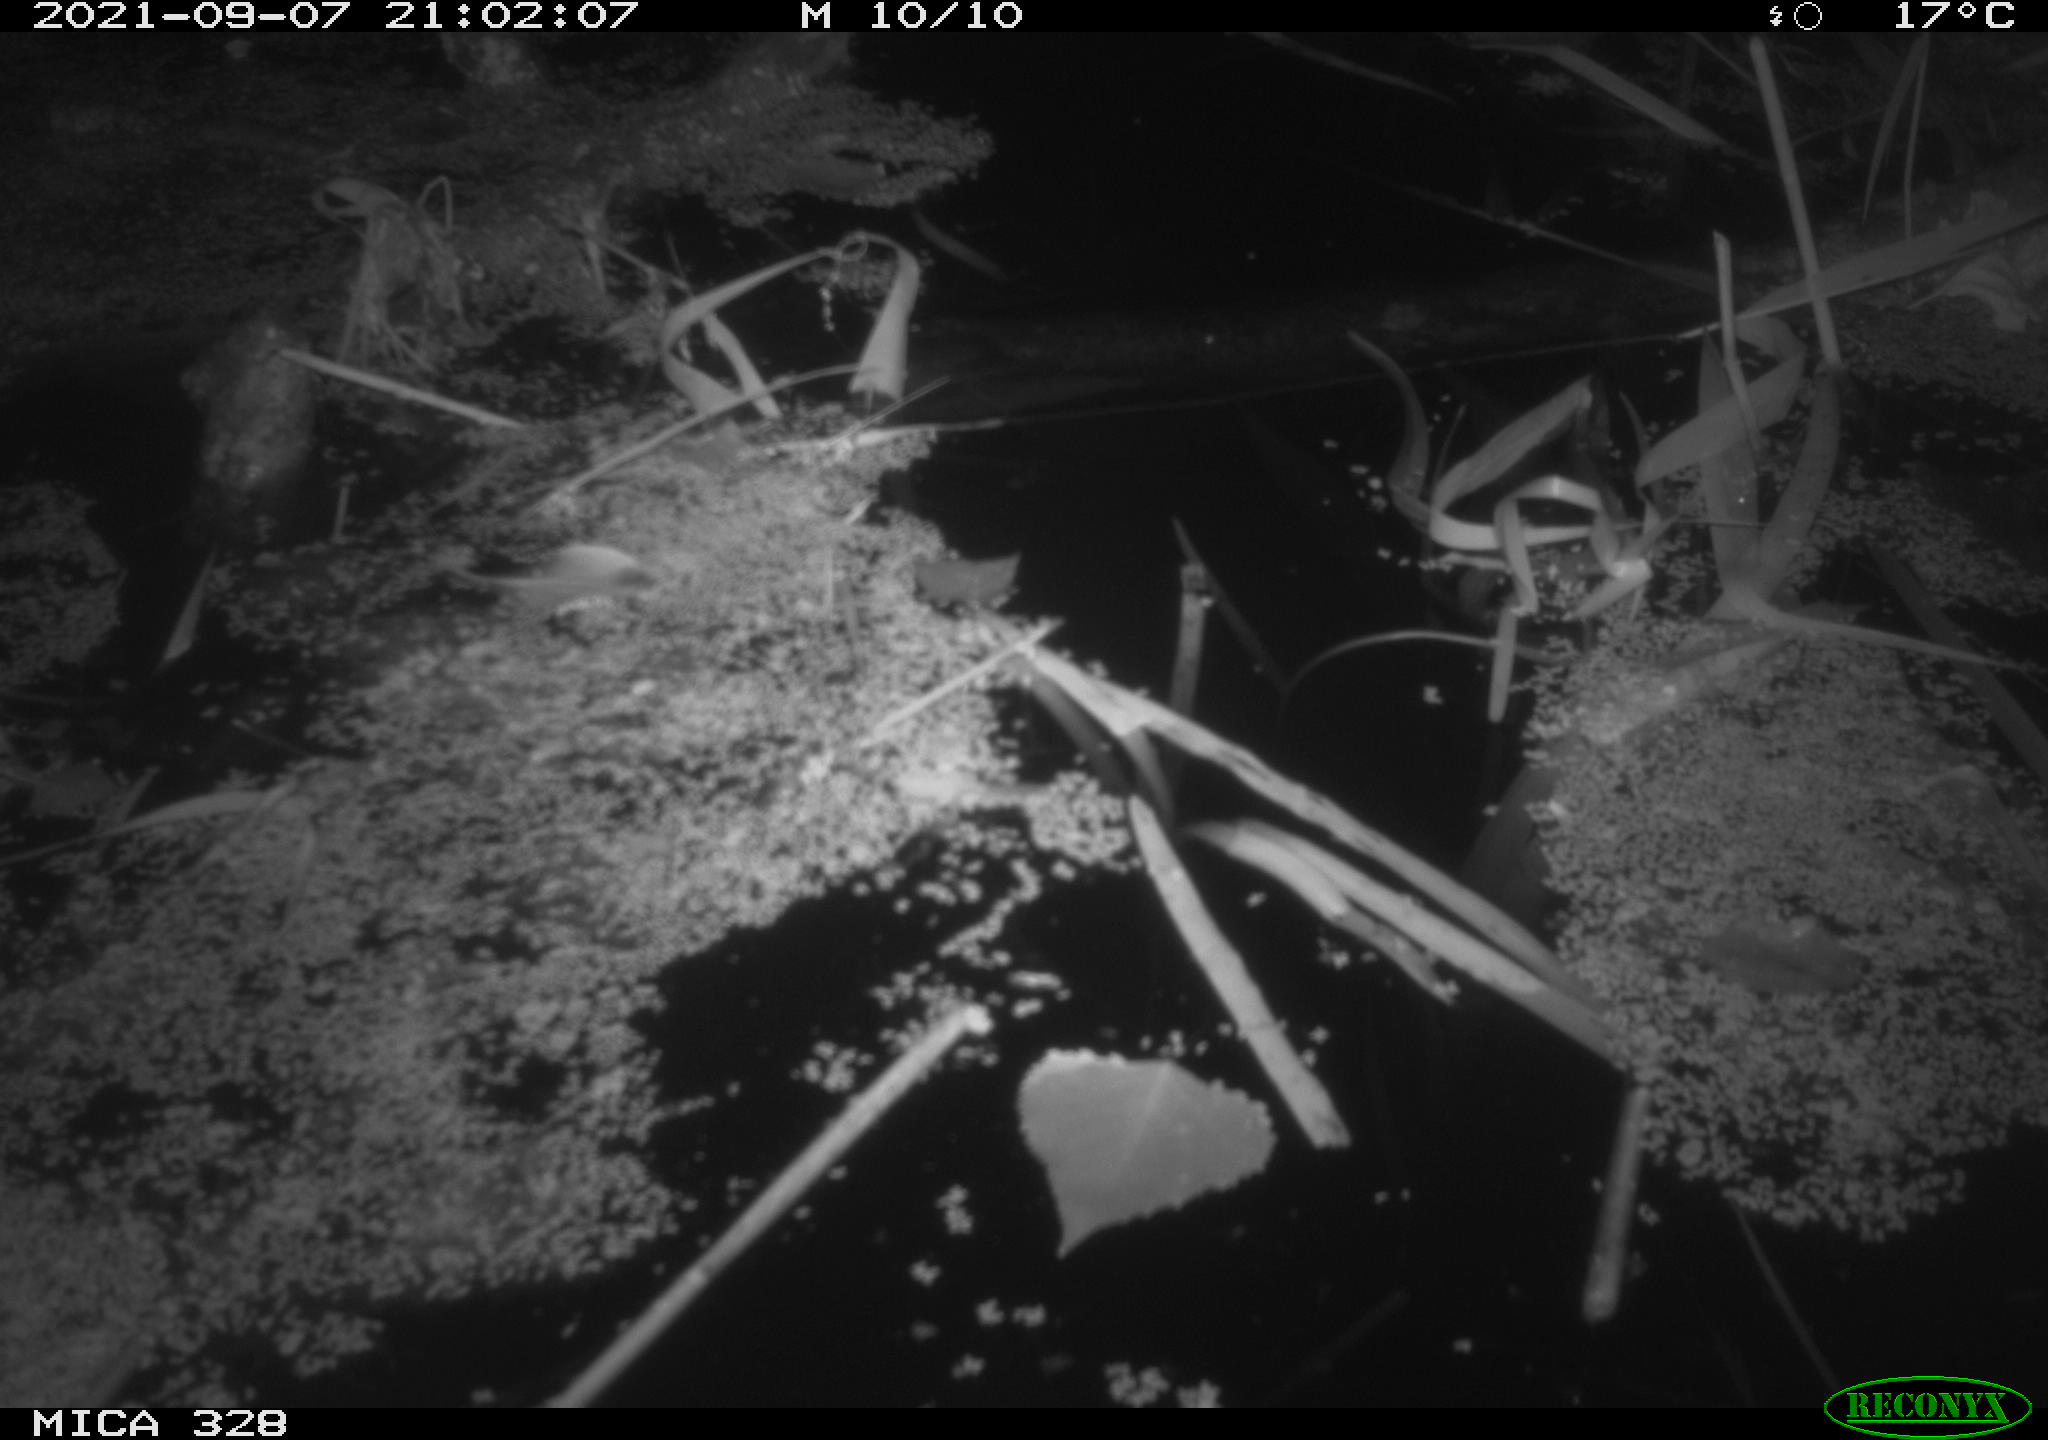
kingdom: Animalia
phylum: Chordata
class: Mammalia
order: Rodentia
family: Cricetidae
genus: Ondatra
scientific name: Ondatra zibethicus
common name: Muskrat
